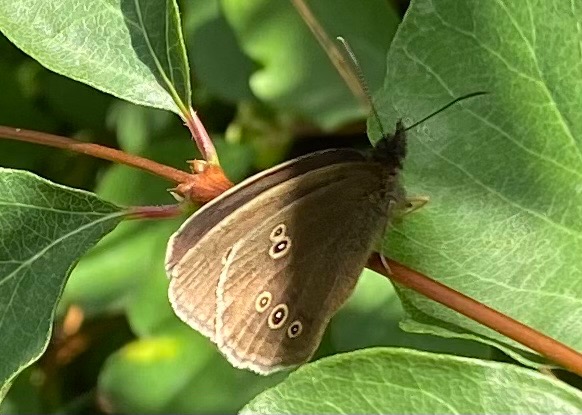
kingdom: Animalia
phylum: Arthropoda
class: Insecta
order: Lepidoptera
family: Nymphalidae
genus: Aphantopus
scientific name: Aphantopus hyperantus
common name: Engrandøje
